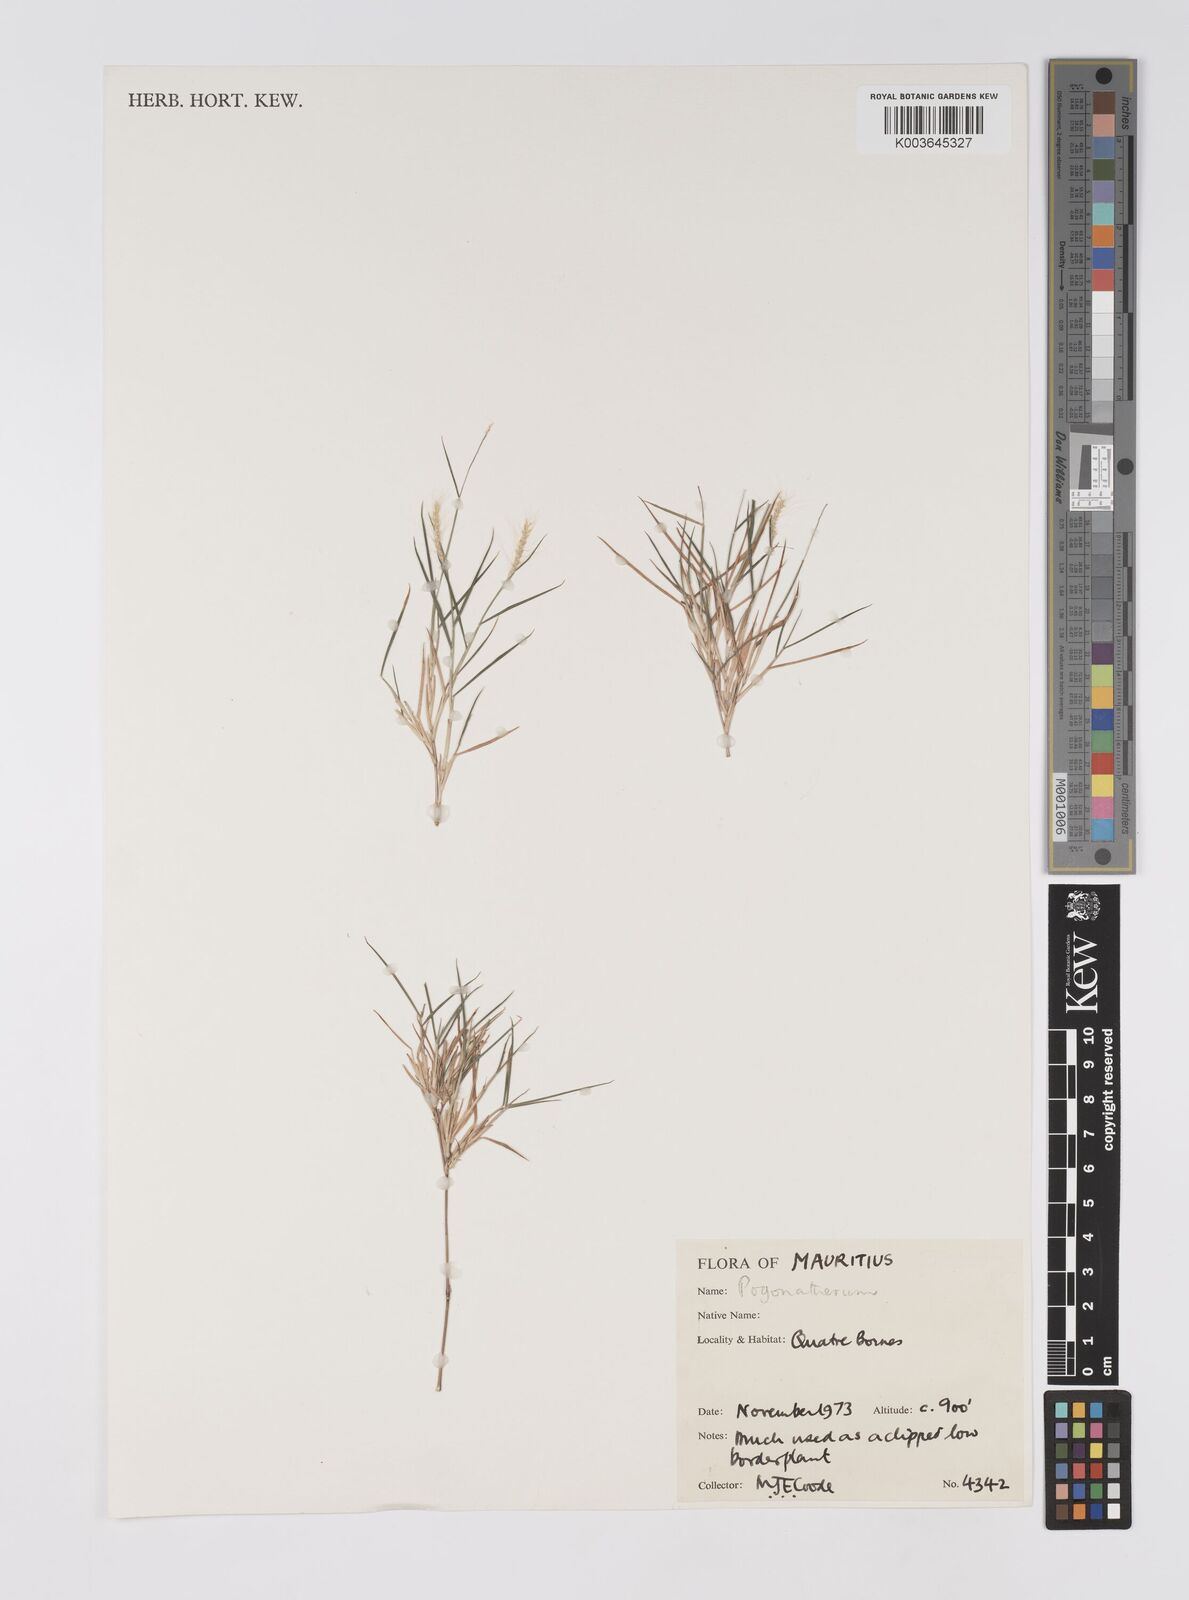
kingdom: Plantae
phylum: Tracheophyta
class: Liliopsida
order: Poales
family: Poaceae
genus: Pogonatherum
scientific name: Pogonatherum paniceum
